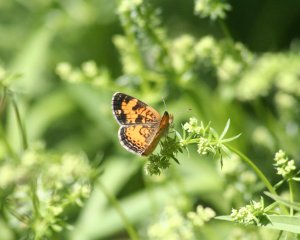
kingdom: Animalia
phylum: Arthropoda
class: Insecta
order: Lepidoptera
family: Nymphalidae
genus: Phyciodes
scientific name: Phyciodes tharos
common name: Northern Crescent
